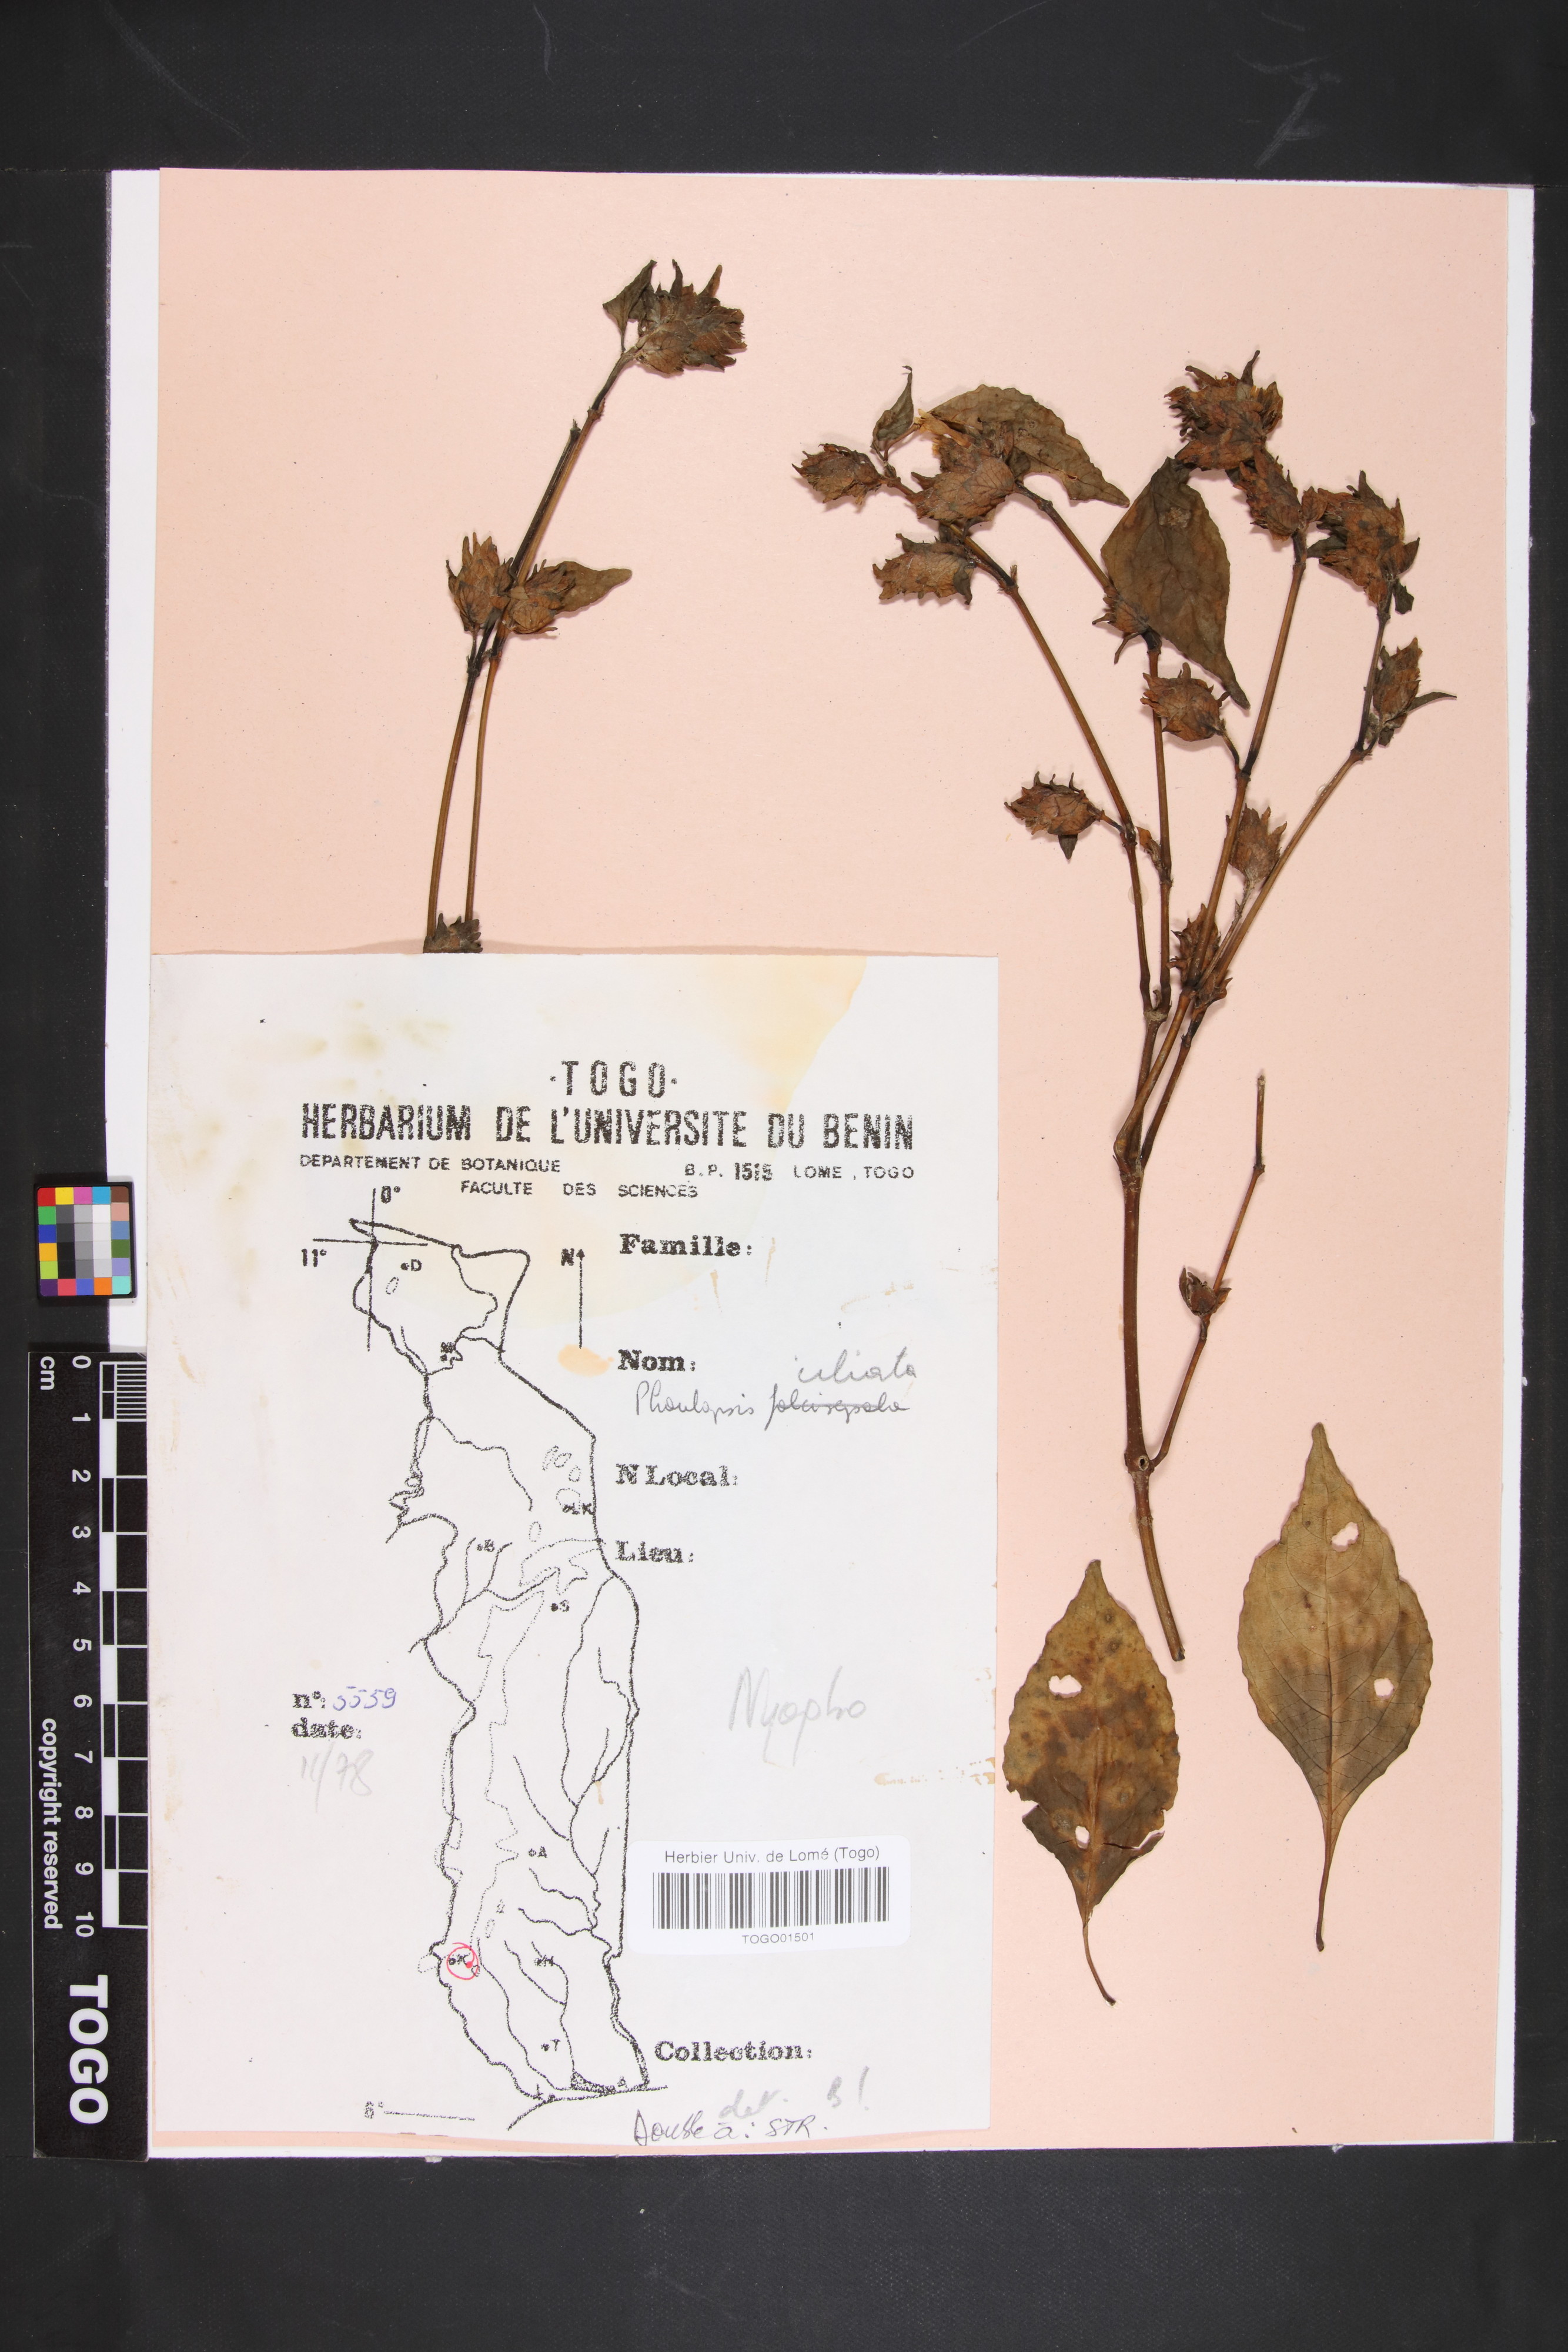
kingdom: Plantae
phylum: Tracheophyta
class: Magnoliopsida
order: Lamiales
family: Acanthaceae
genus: Phaulopsis
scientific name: Phaulopsis ciliata
